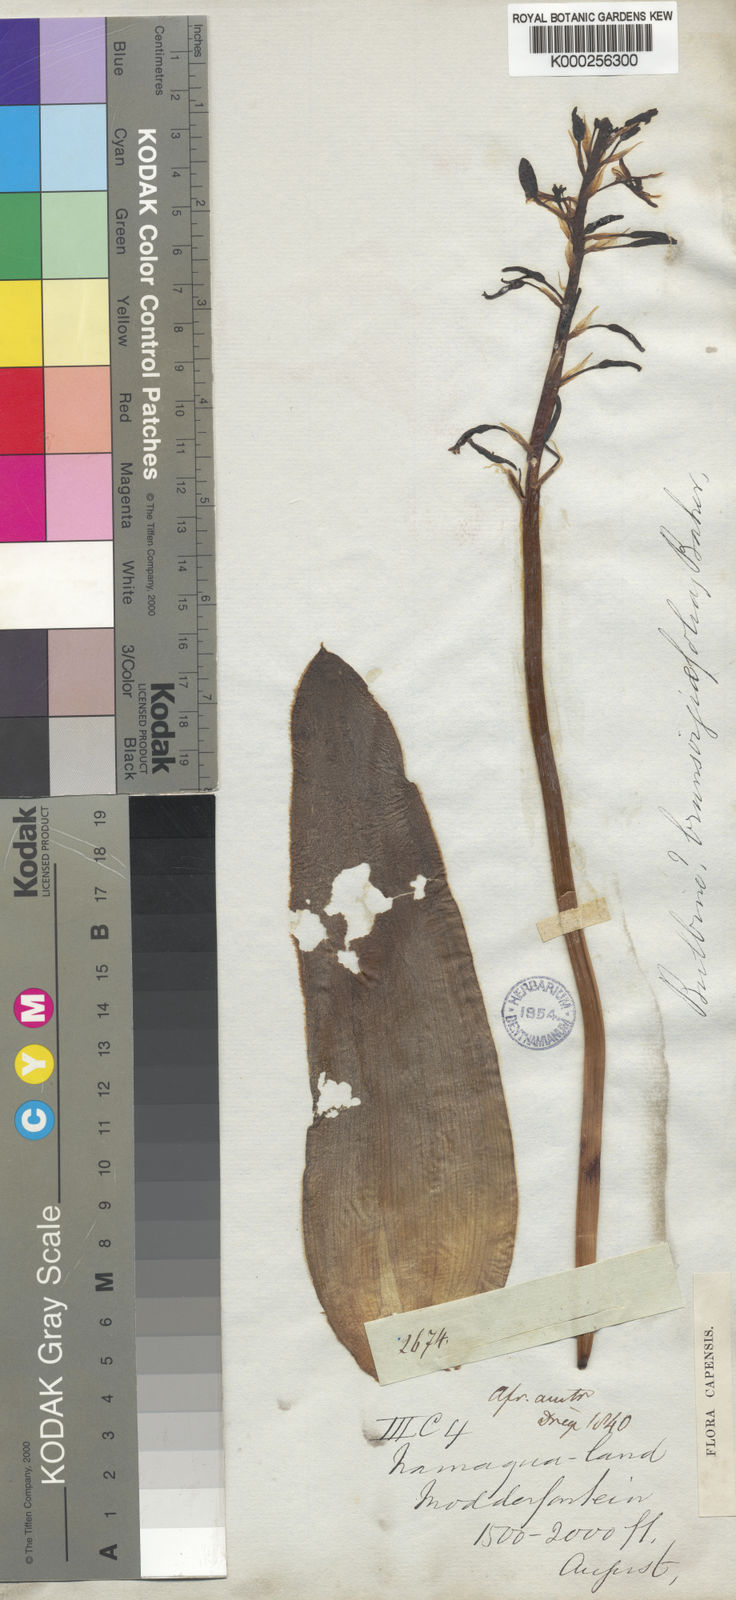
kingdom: Plantae
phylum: Tracheophyta
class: Liliopsida
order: Asparagales
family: Asphodelaceae
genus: Bulbine
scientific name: Bulbine
